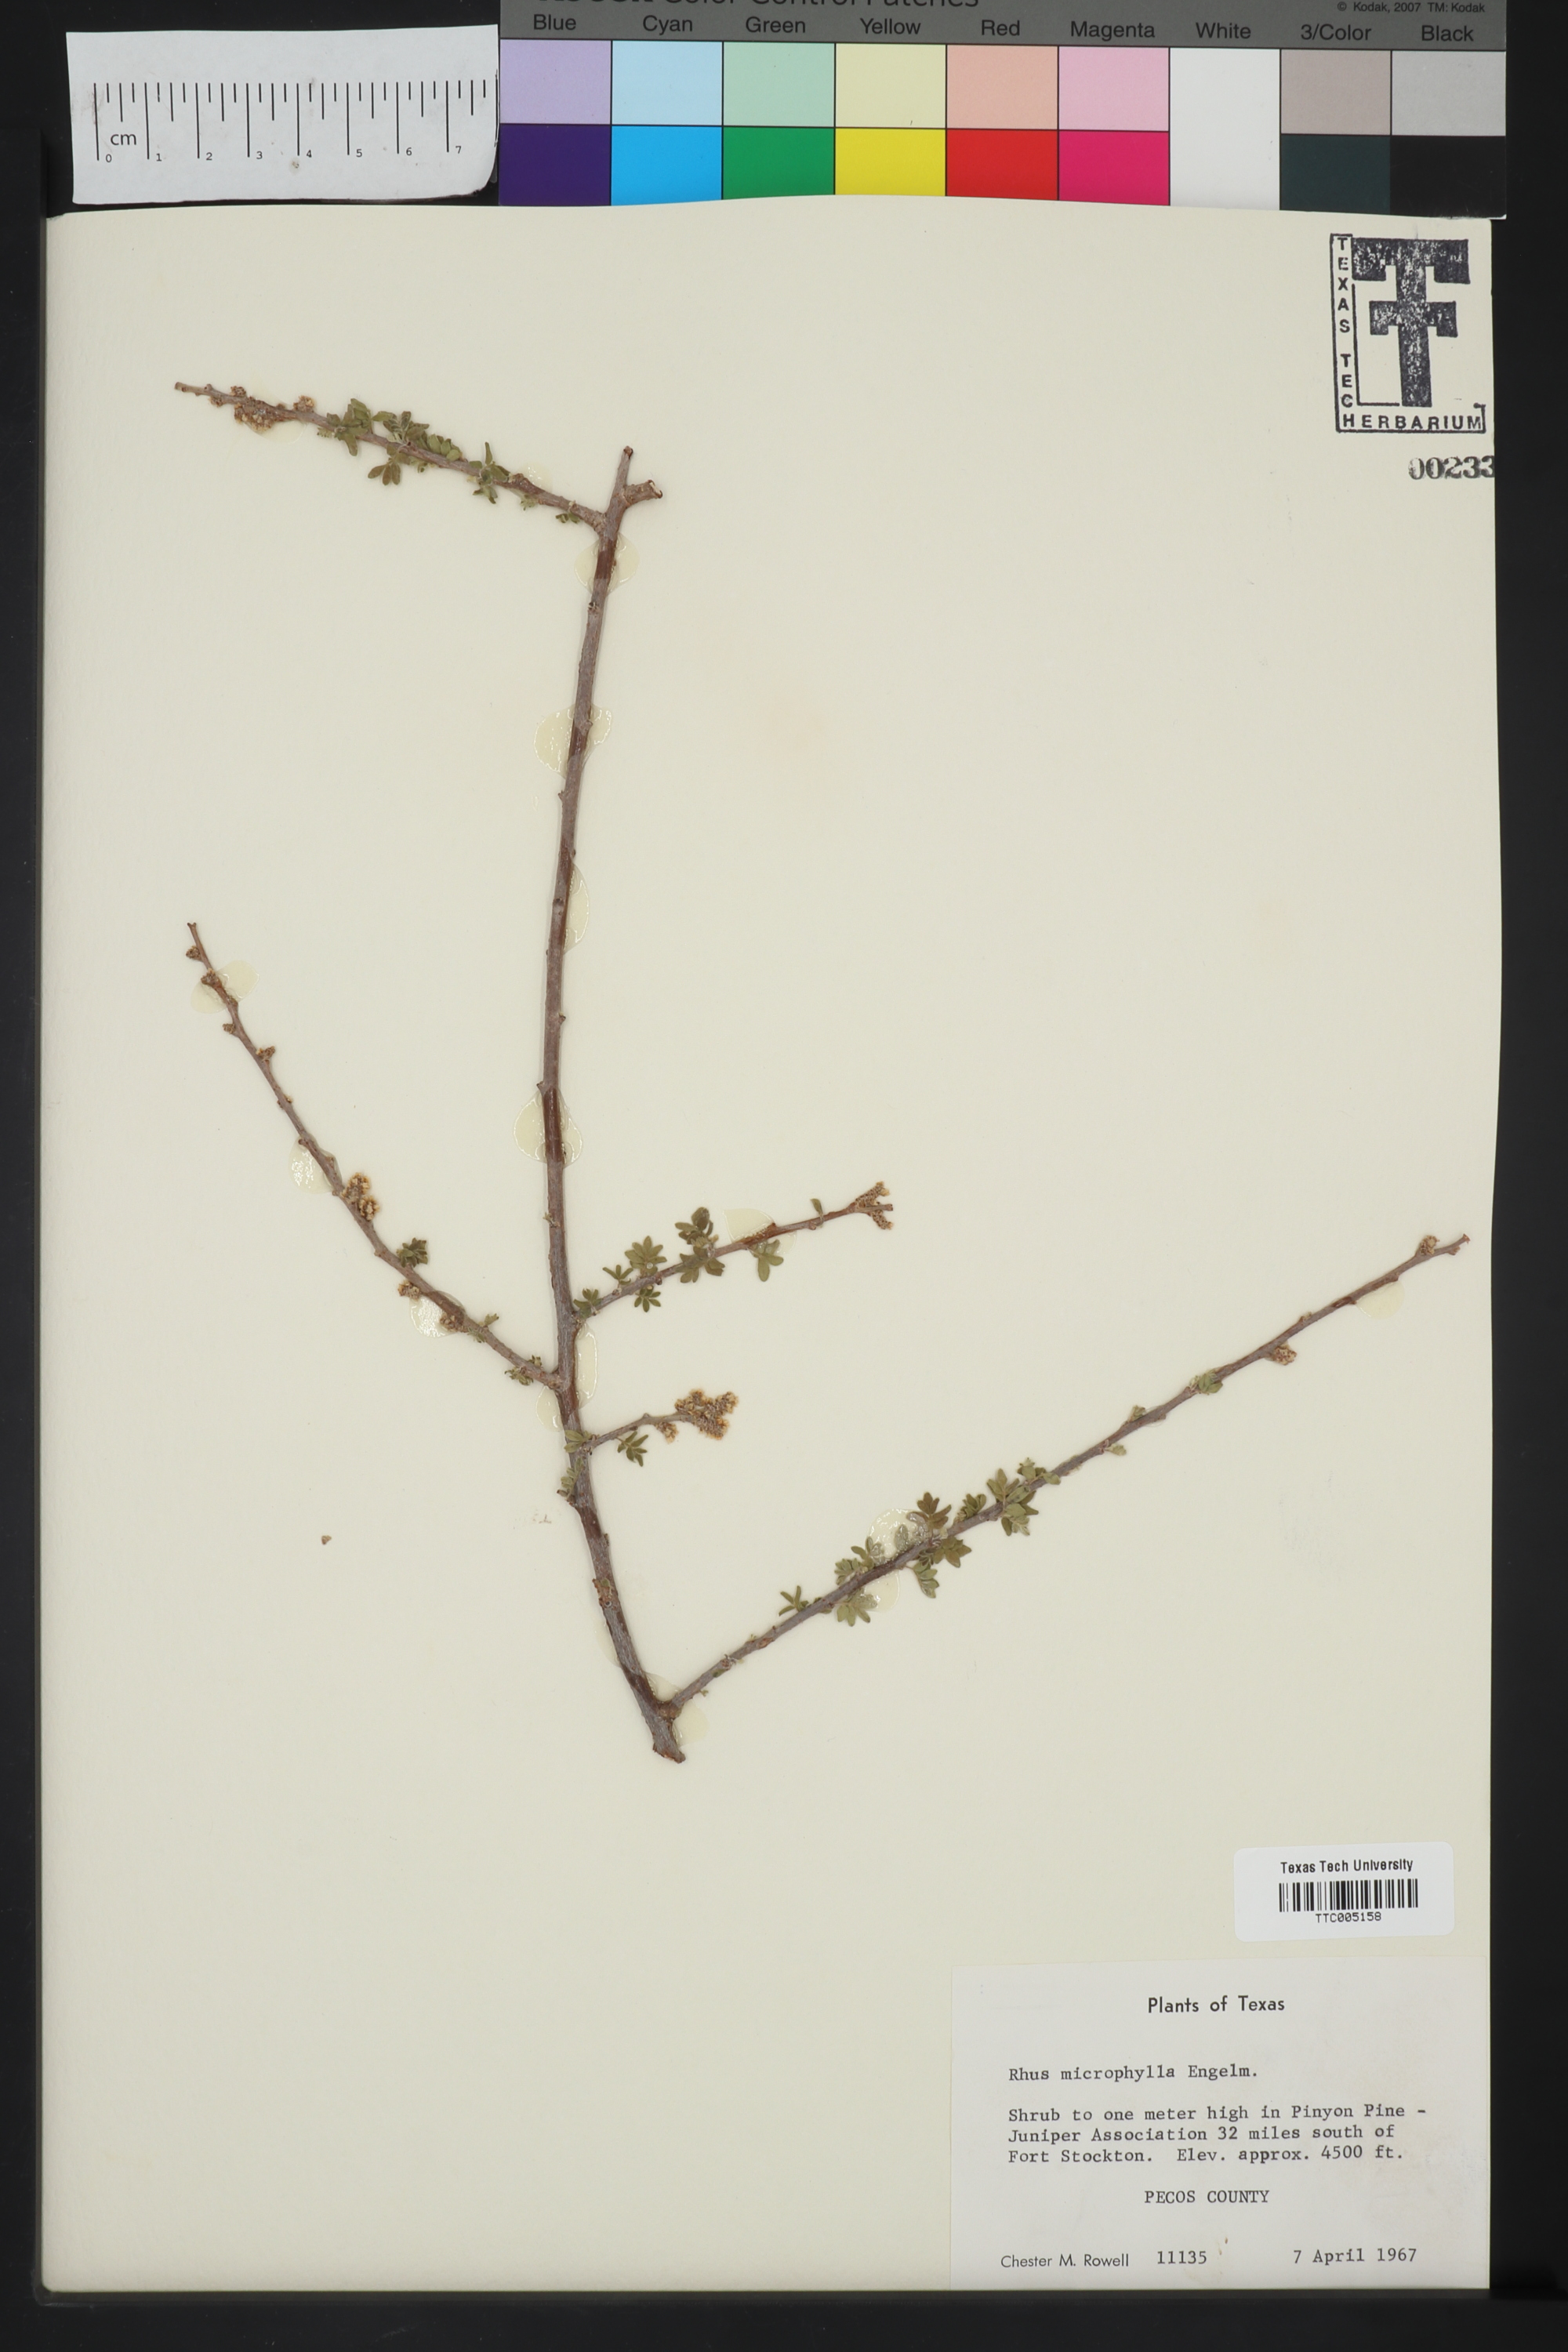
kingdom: Plantae
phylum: Tracheophyta
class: Magnoliopsida
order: Sapindales
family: Anacardiaceae
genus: Rhus
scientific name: Rhus microphylla
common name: Desert sumac
